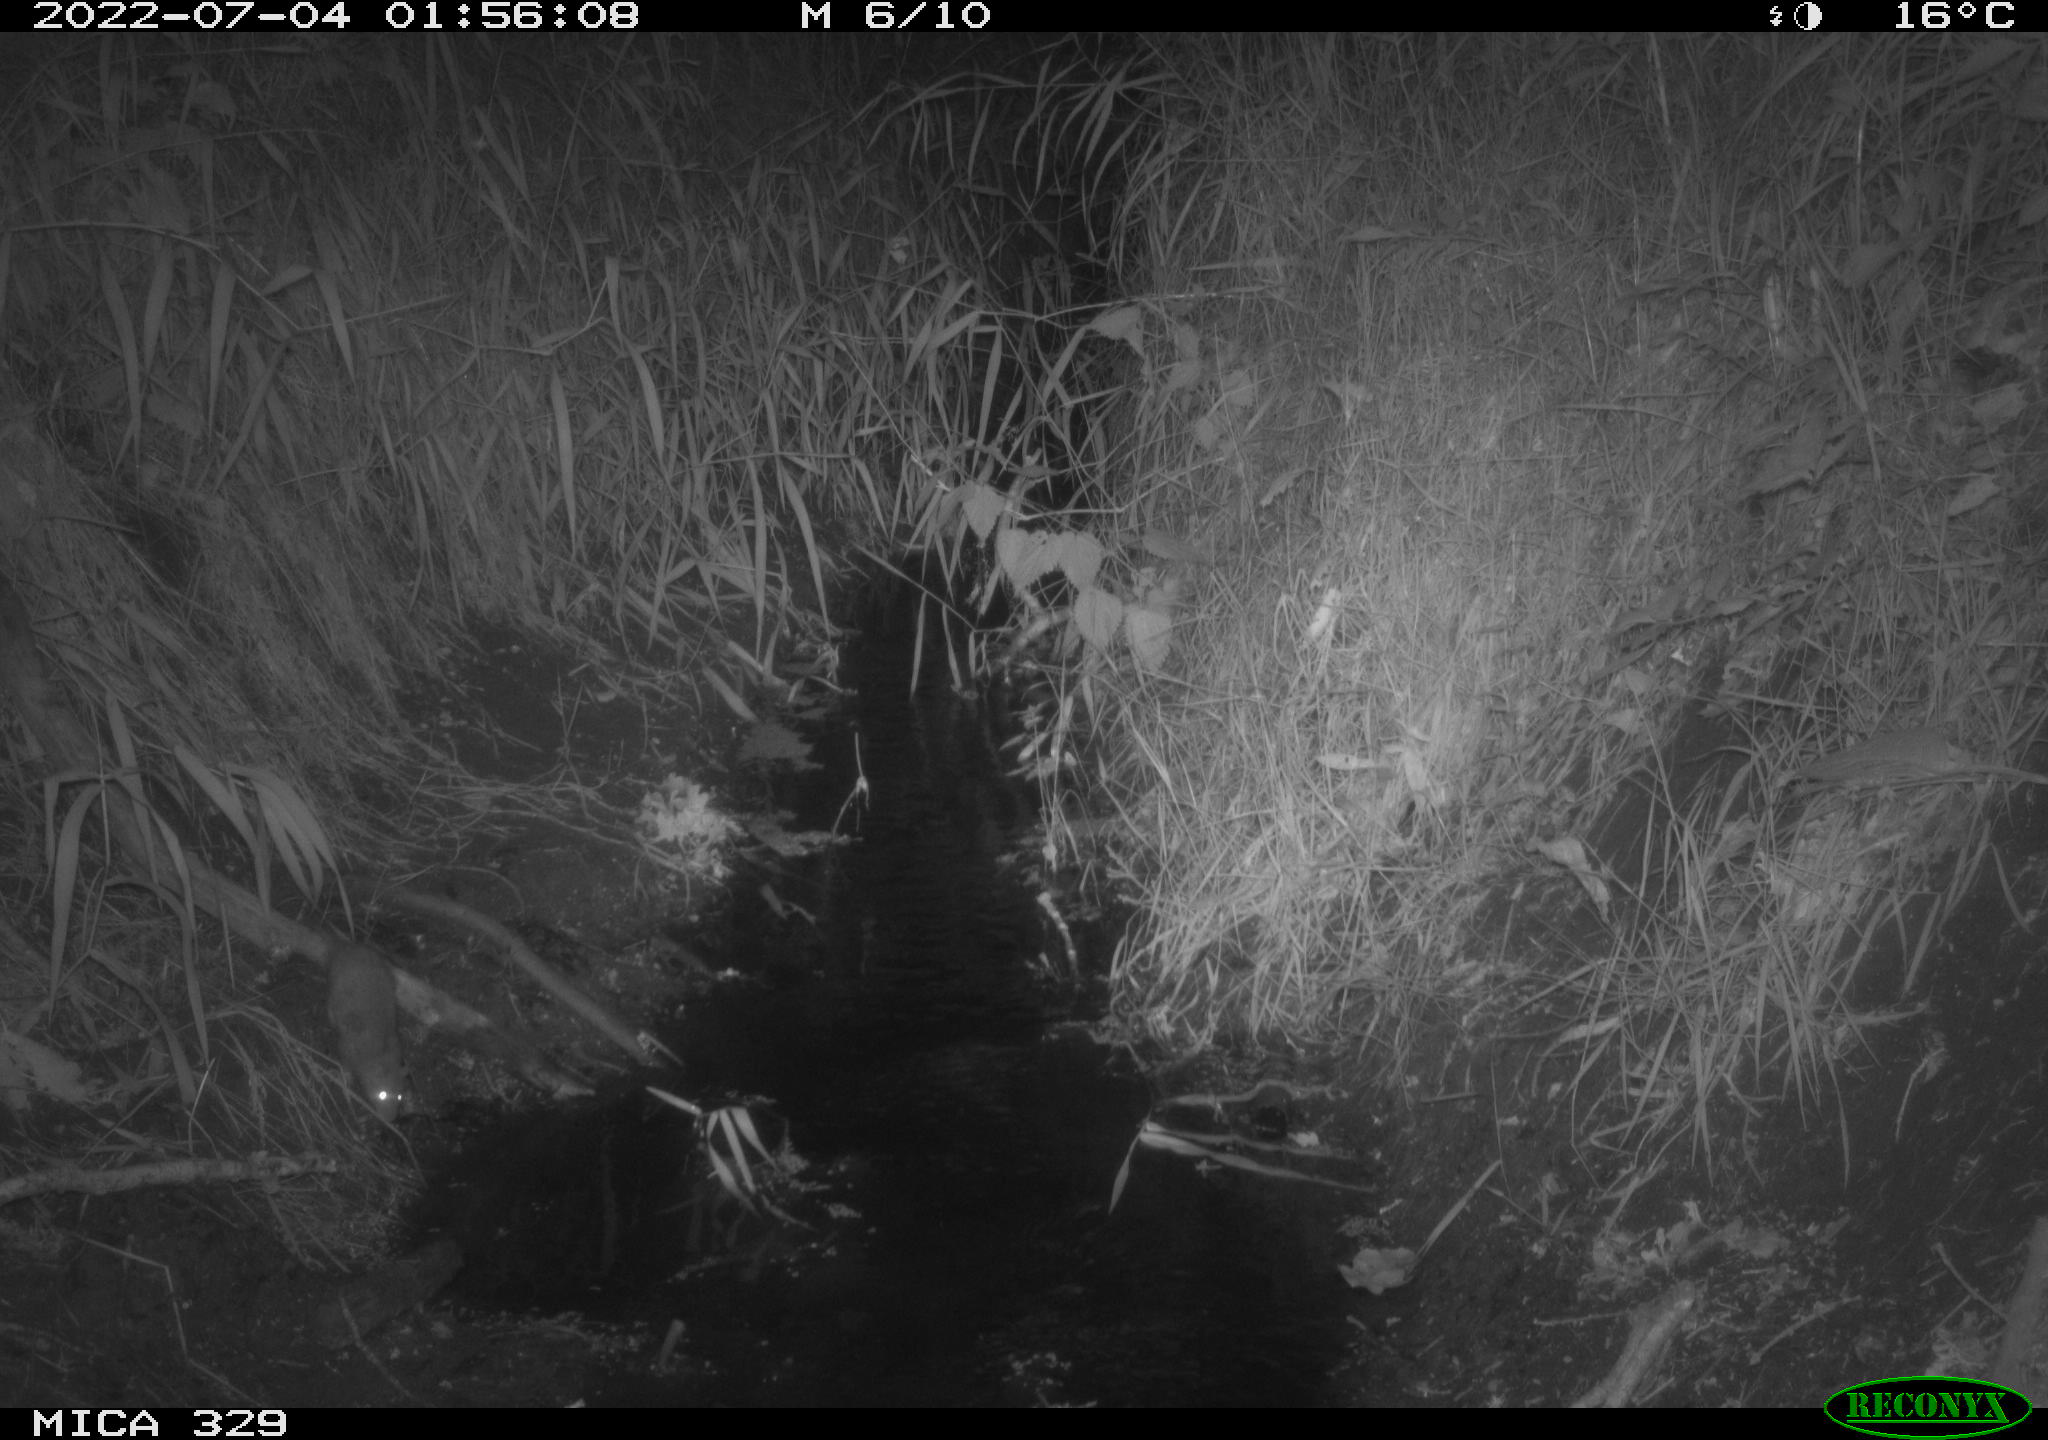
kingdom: Animalia
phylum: Chordata
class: Mammalia
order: Rodentia
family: Muridae
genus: Rattus
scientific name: Rattus norvegicus
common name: Brown rat
